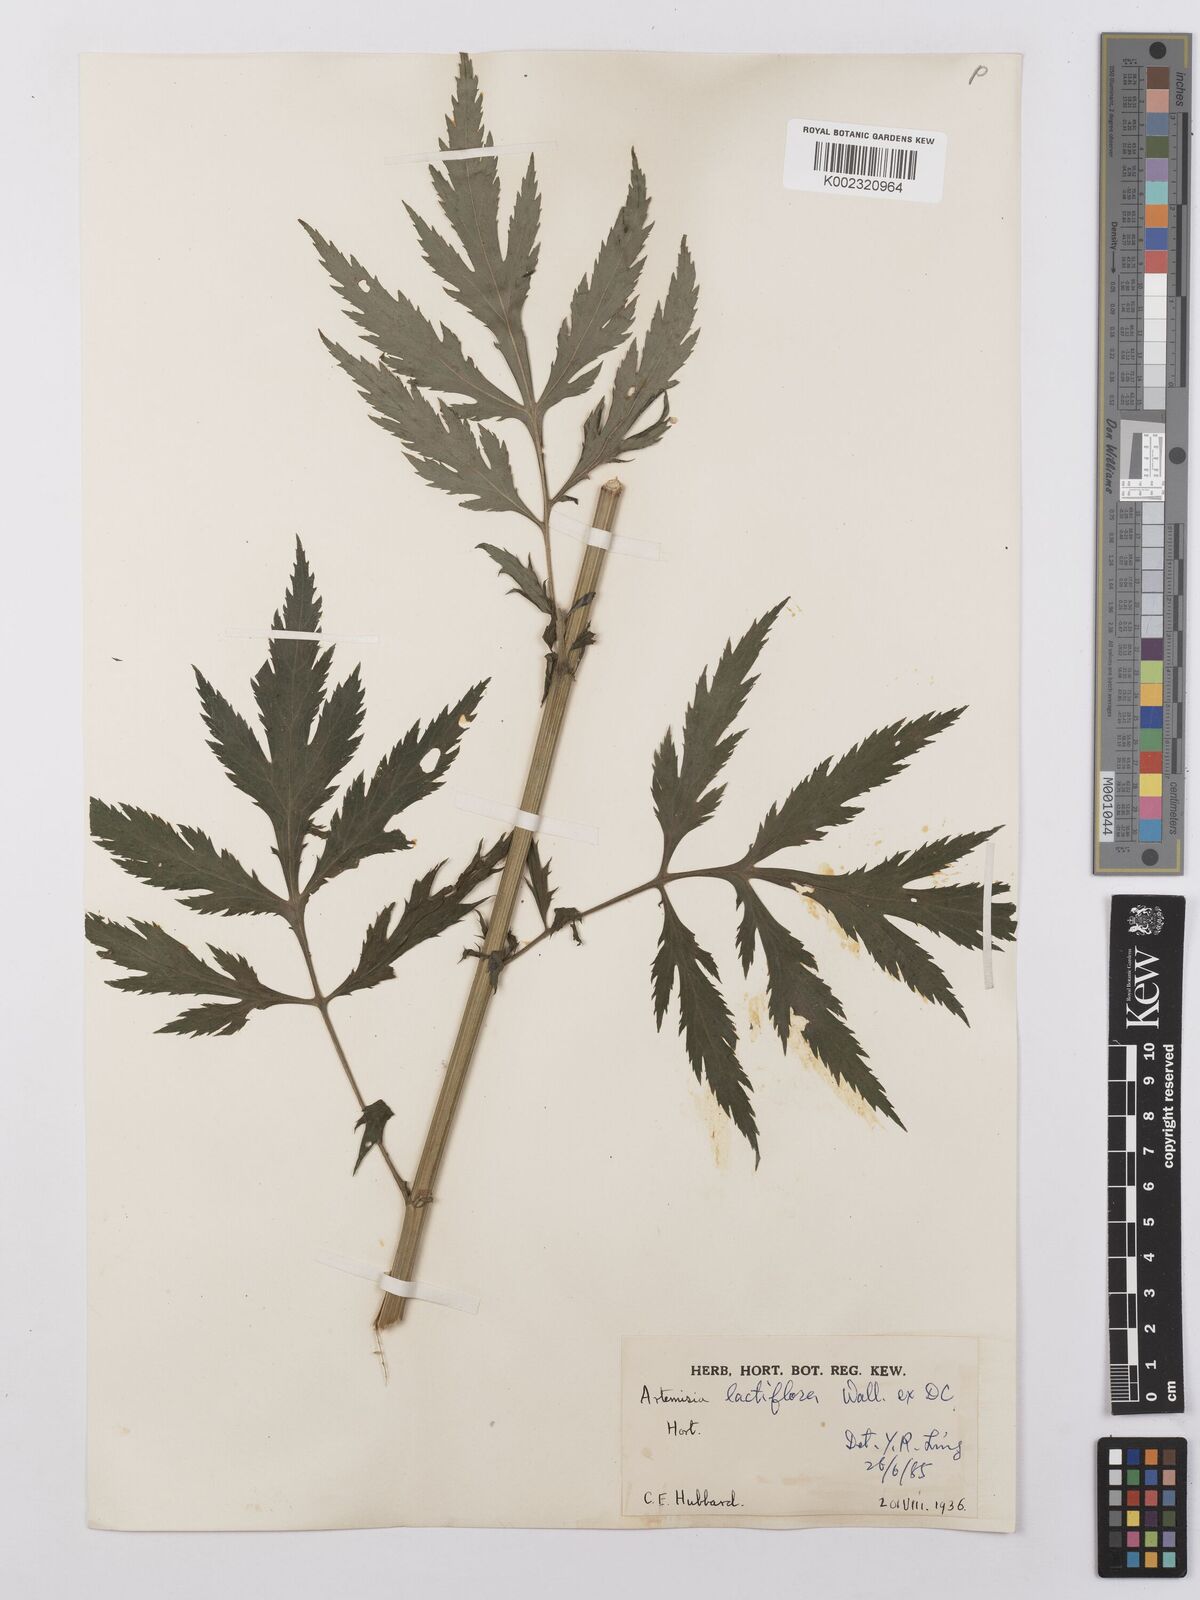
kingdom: Plantae
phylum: Tracheophyta
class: Magnoliopsida
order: Asterales
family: Asteraceae
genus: Artemisia
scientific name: Artemisia
